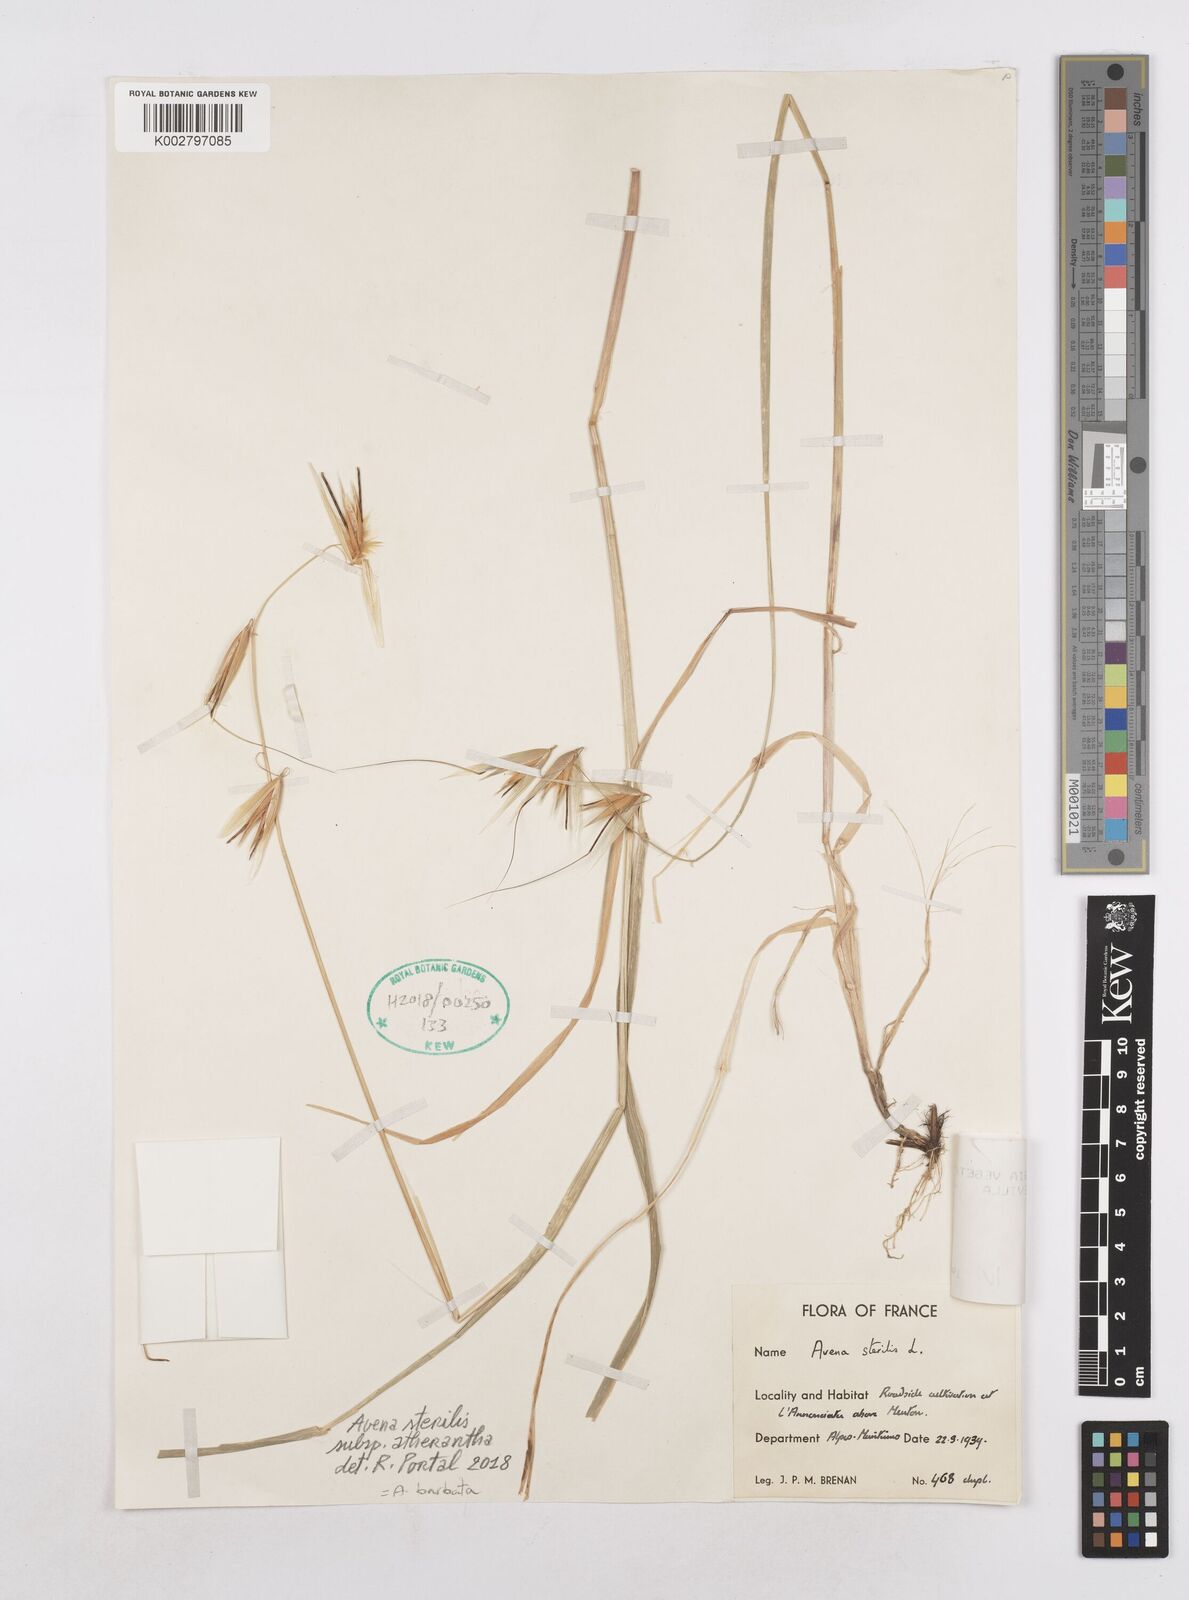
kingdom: Plantae
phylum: Tracheophyta
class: Liliopsida
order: Poales
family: Poaceae
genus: Avena
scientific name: Avena
